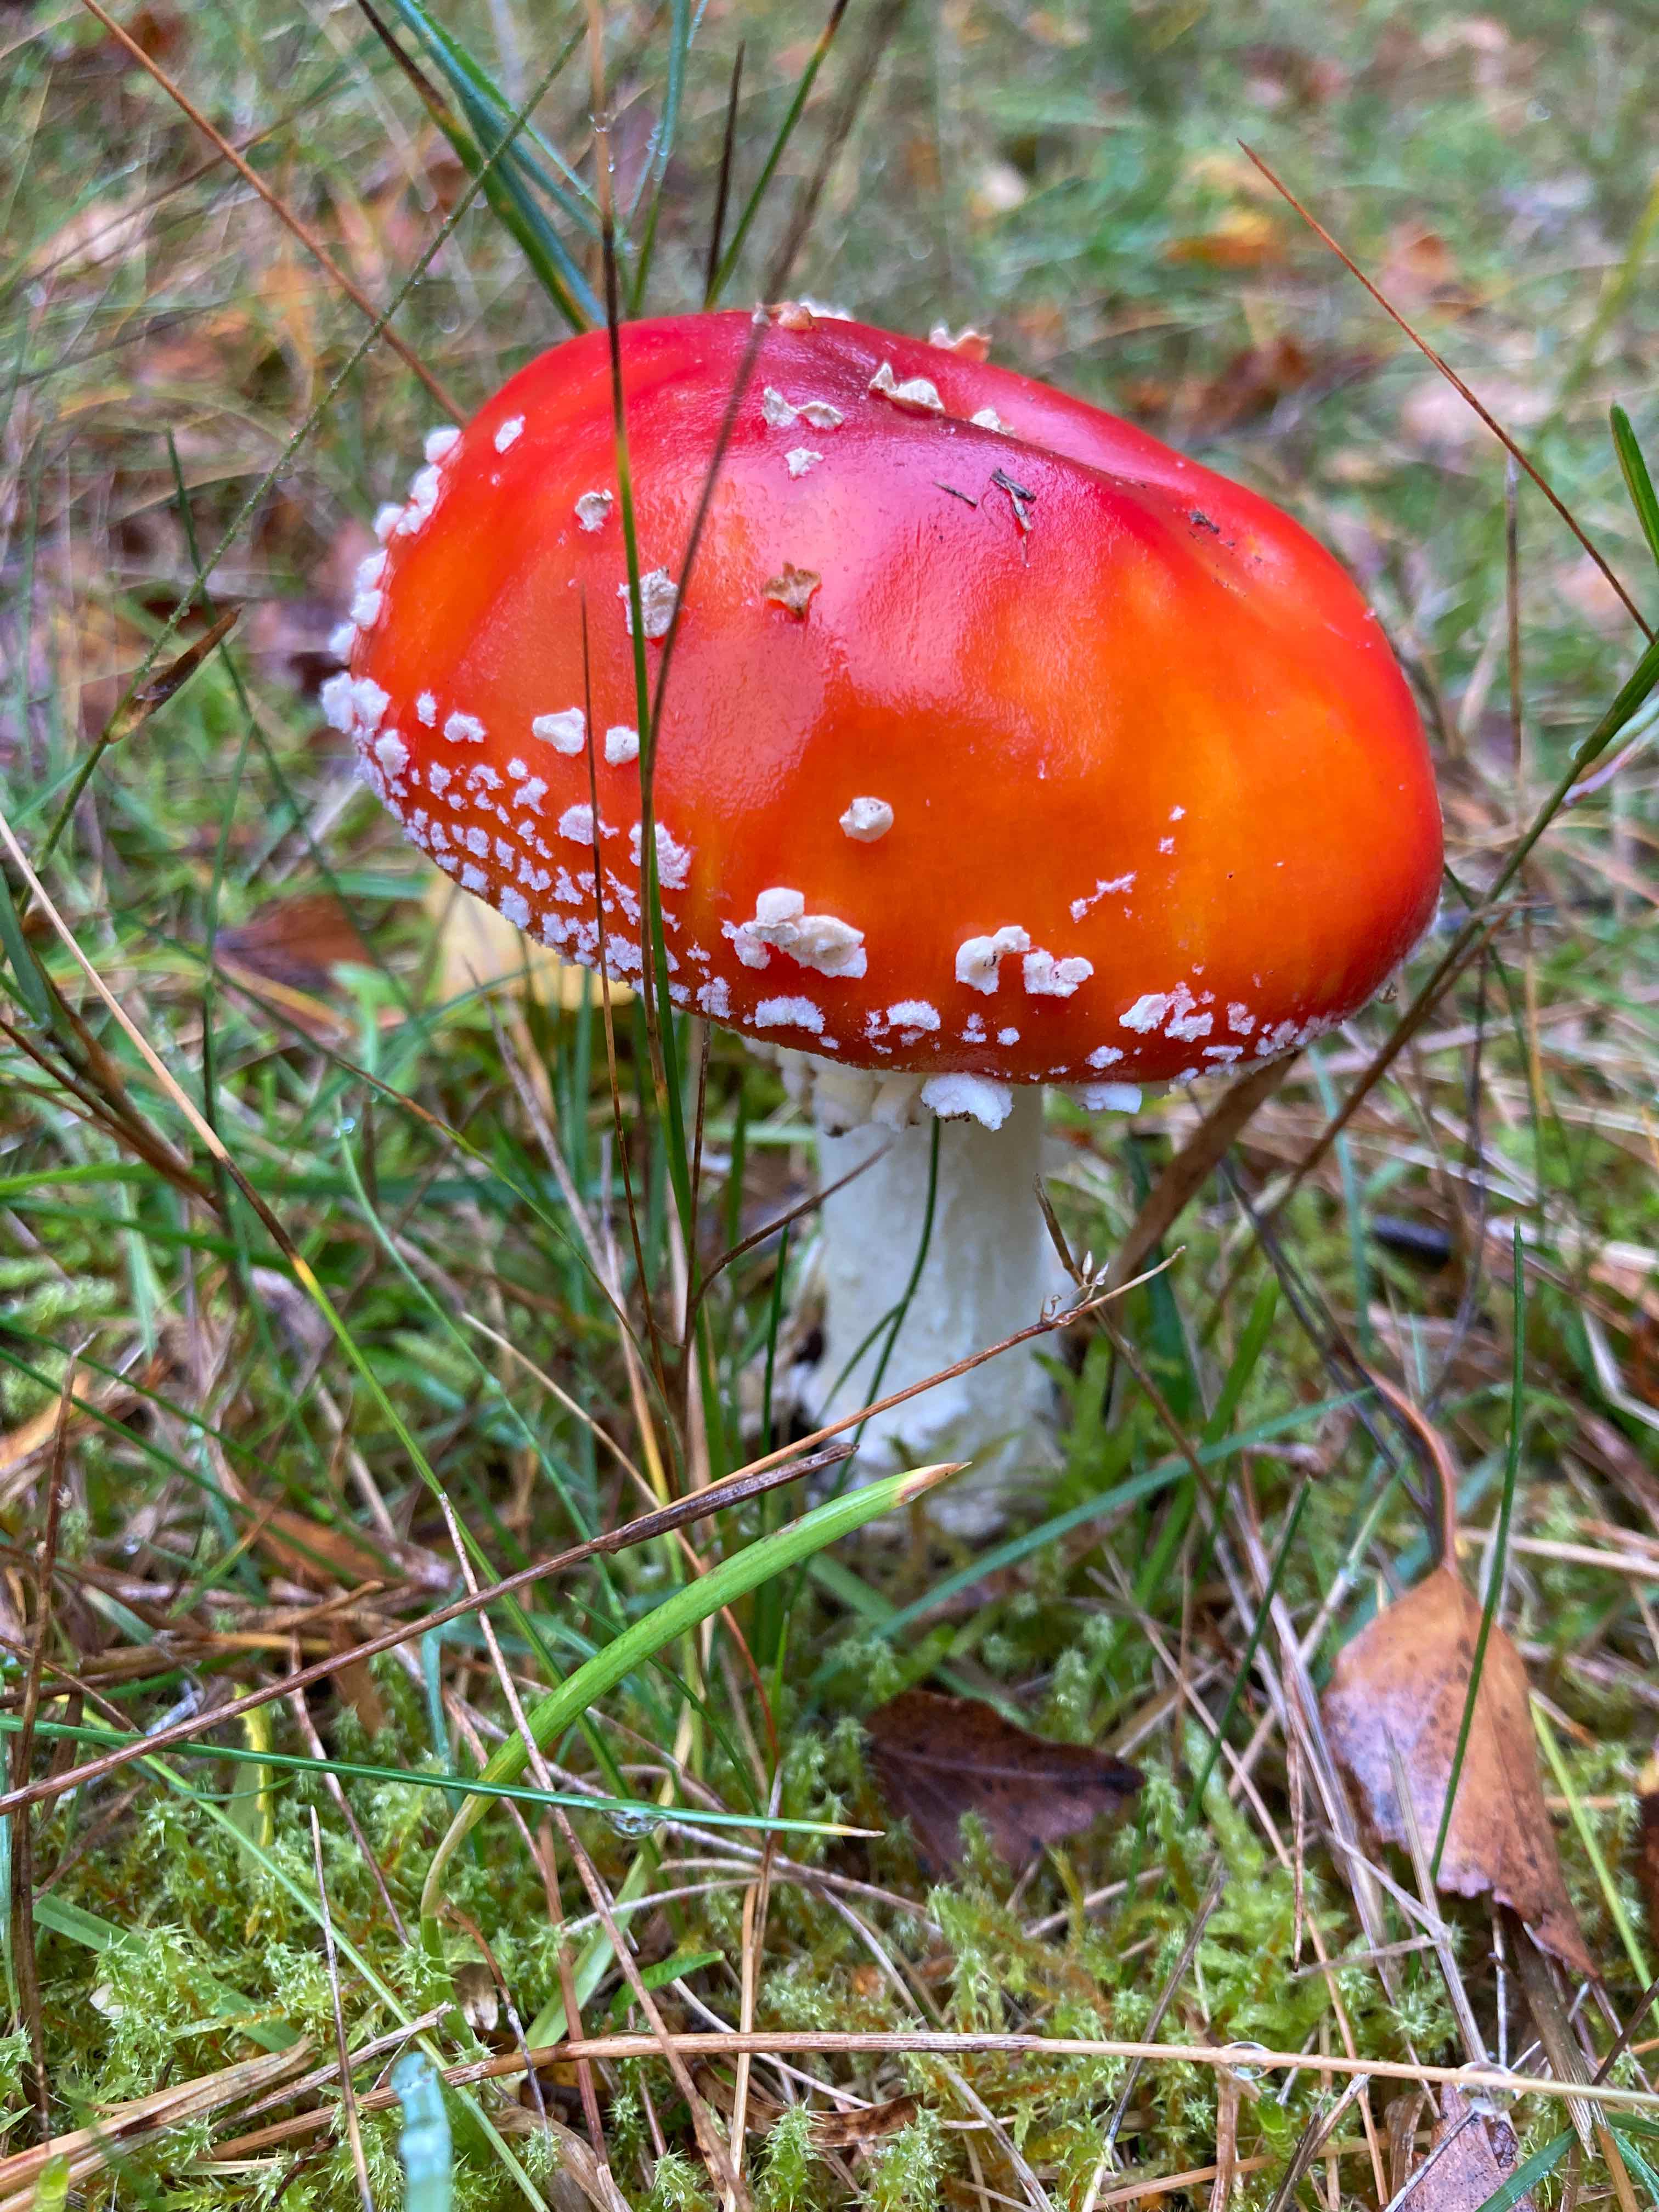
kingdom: Fungi
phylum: Basidiomycota
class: Agaricomycetes
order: Agaricales
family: Amanitaceae
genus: Amanita
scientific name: Amanita muscaria
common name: rød fluesvamp
